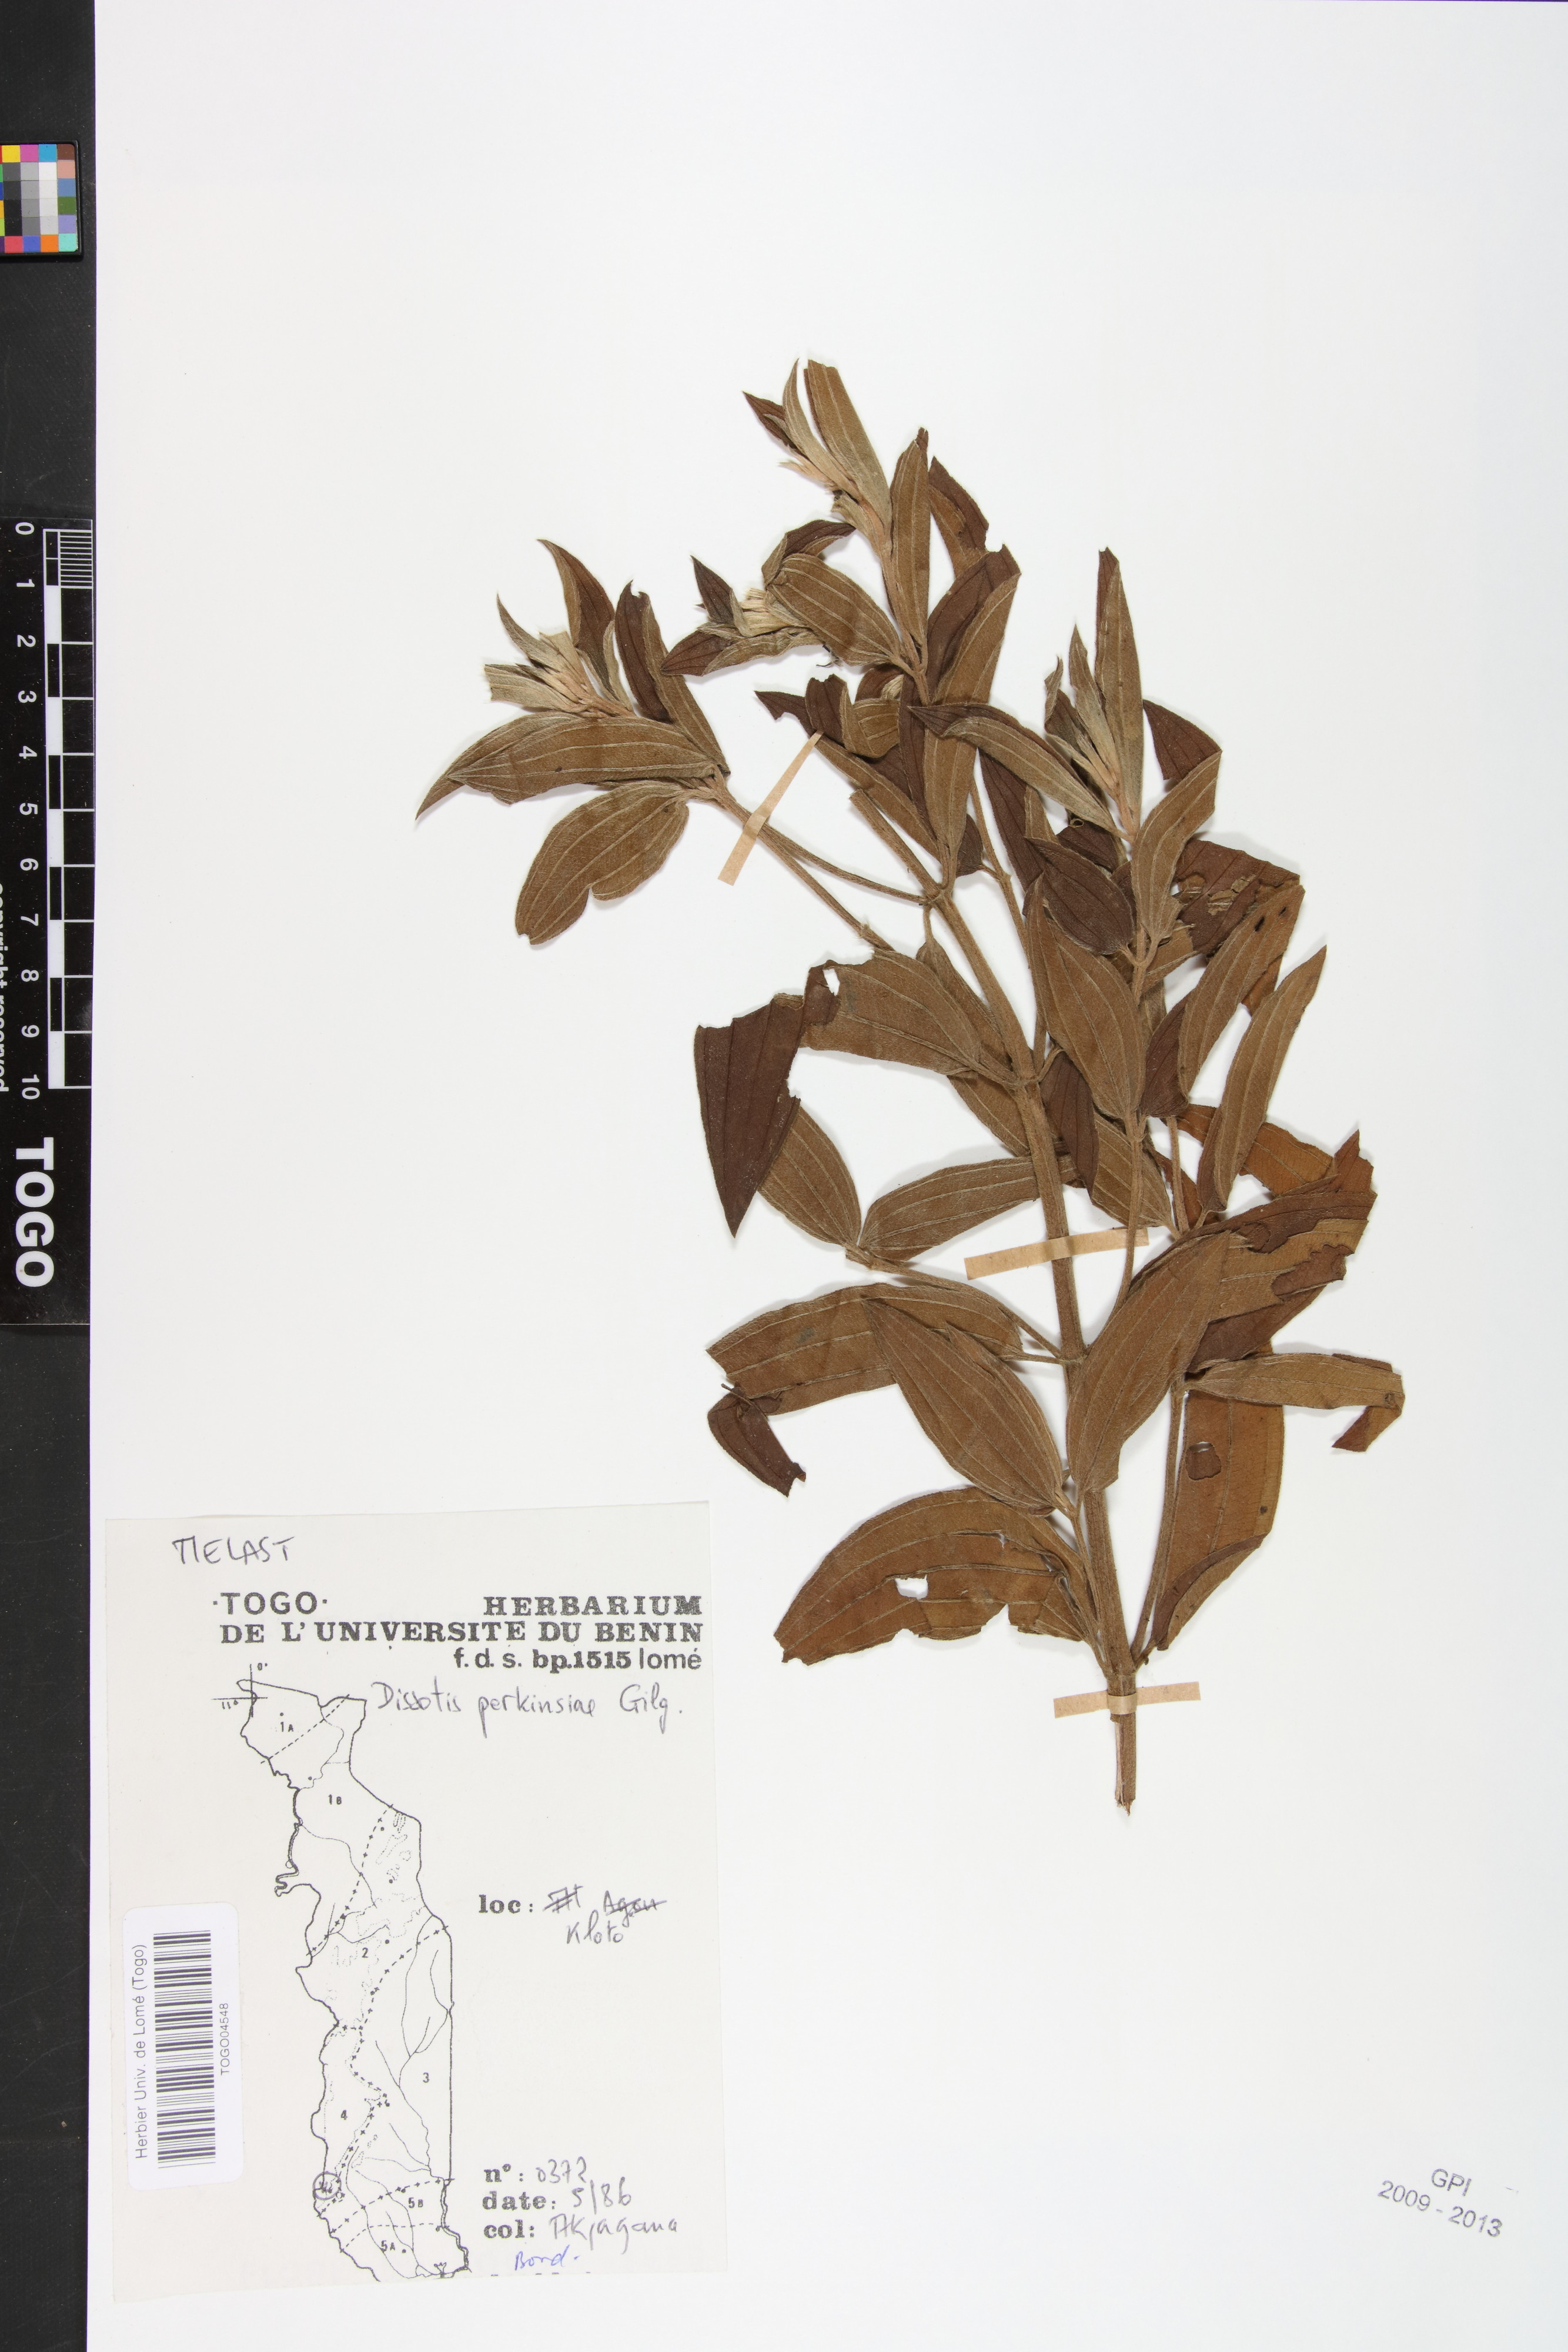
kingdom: Plantae
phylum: Tracheophyta
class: Magnoliopsida
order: Myrtales
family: Melastomataceae
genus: Feliciotis
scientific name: Feliciotis perkinsiae
